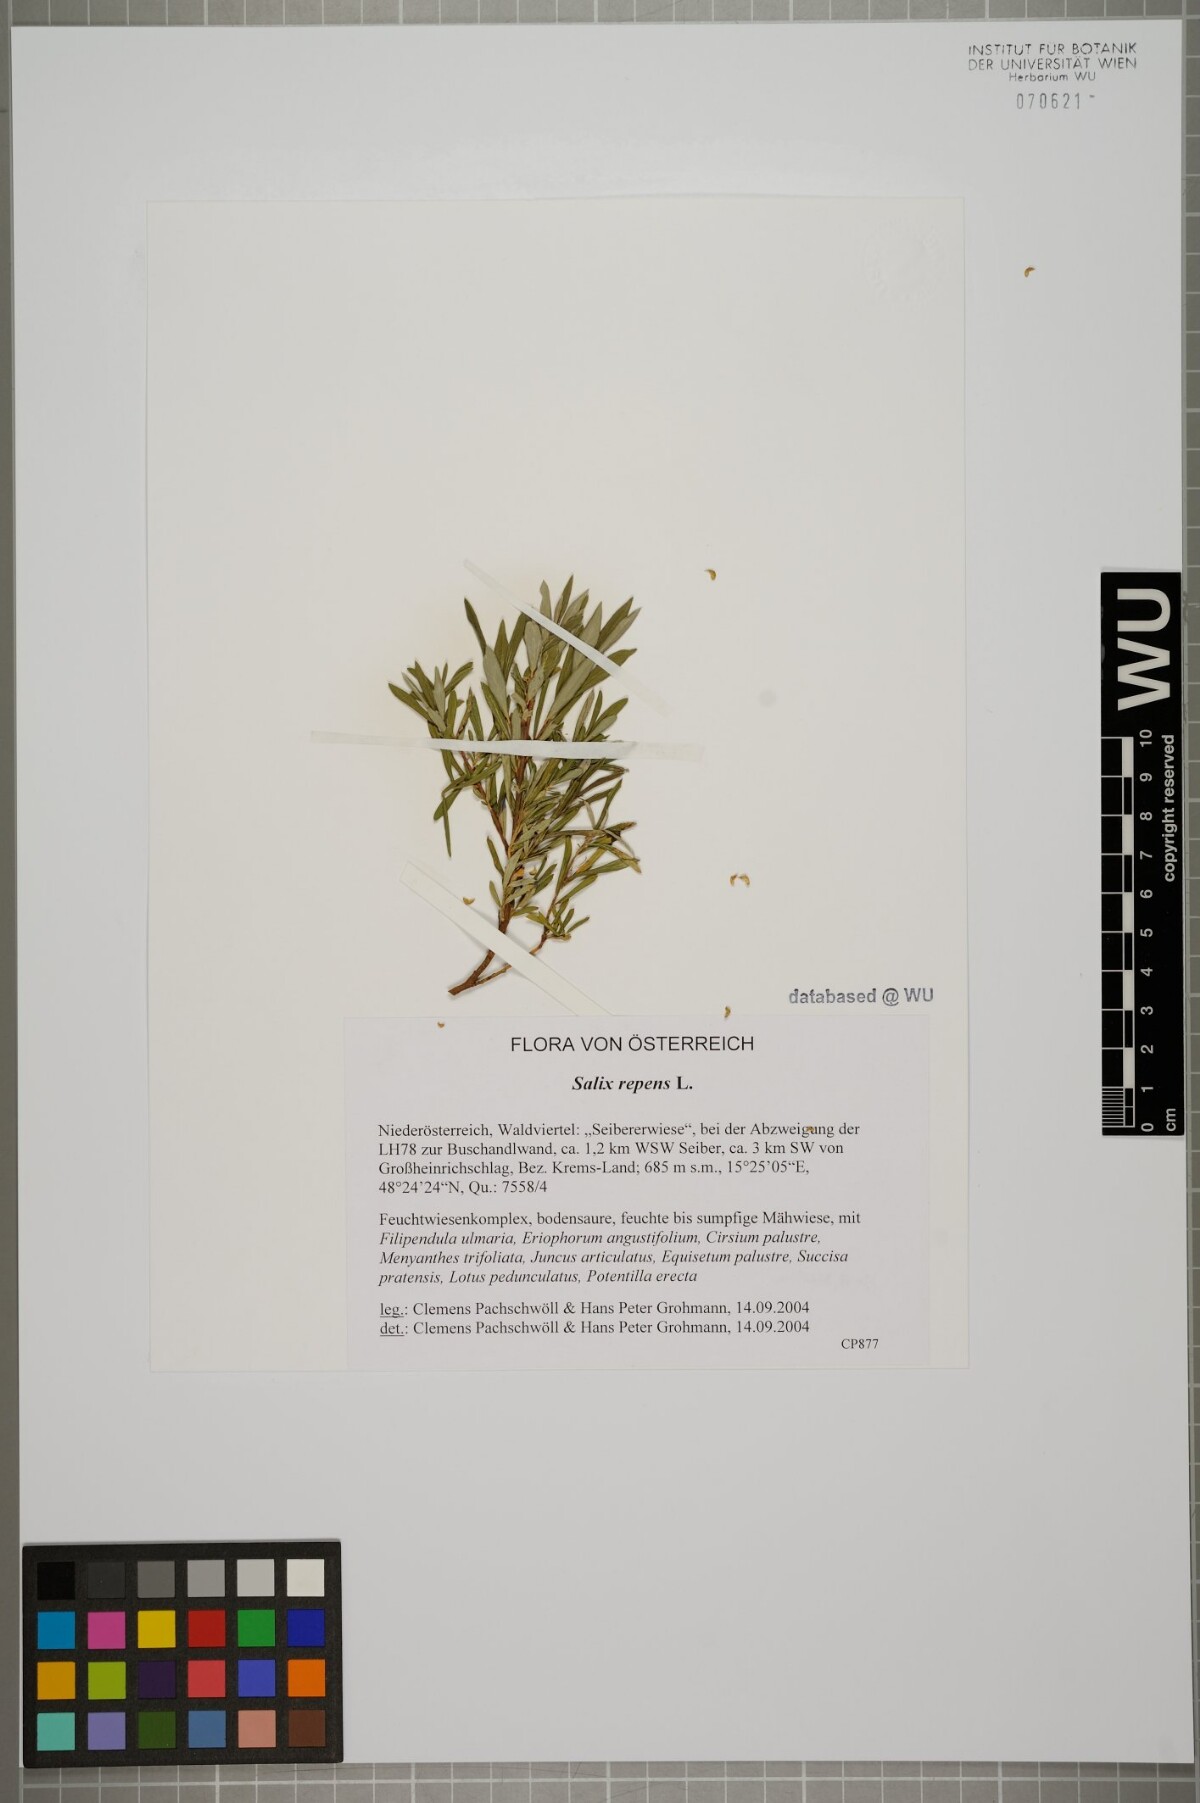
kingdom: Plantae
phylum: Tracheophyta
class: Magnoliopsida
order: Malpighiales
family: Salicaceae
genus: Salix
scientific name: Salix repens
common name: Creeping willow
